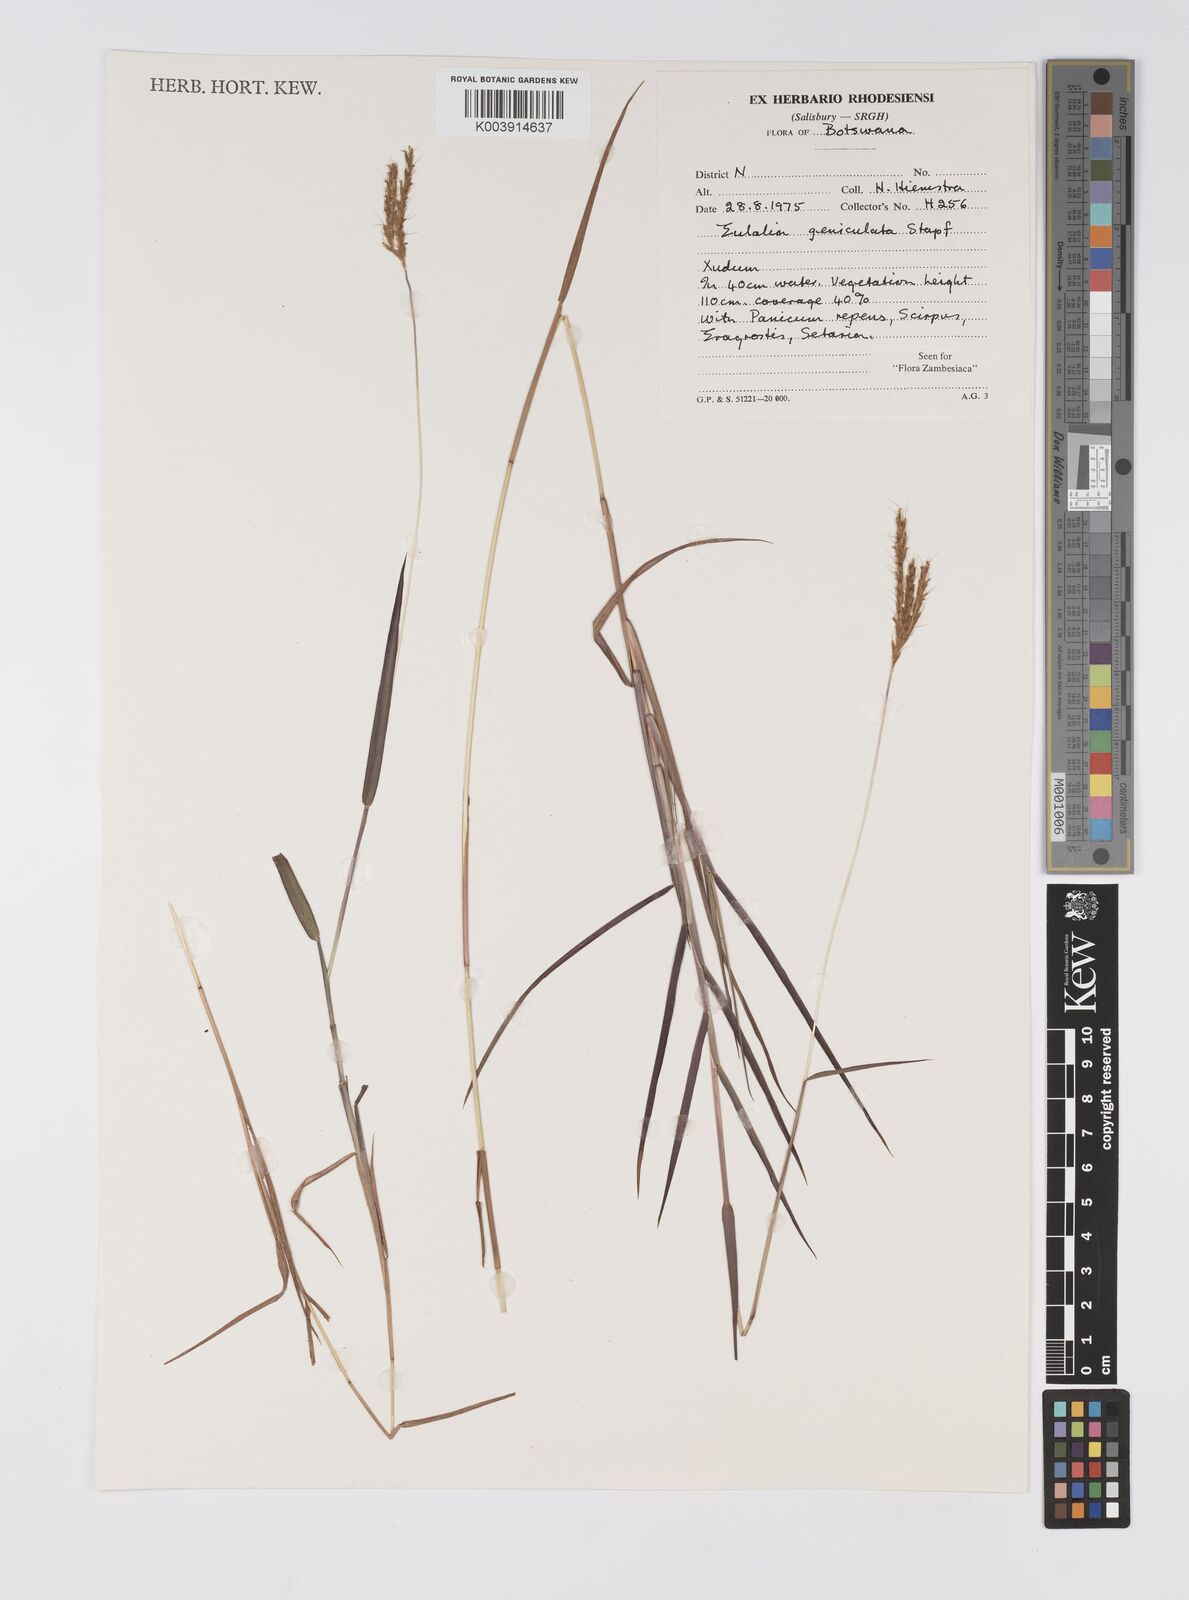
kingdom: Plantae
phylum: Tracheophyta
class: Liliopsida
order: Poales
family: Poaceae
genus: Eulalia
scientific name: Eulalia aurea
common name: Silky browntop
